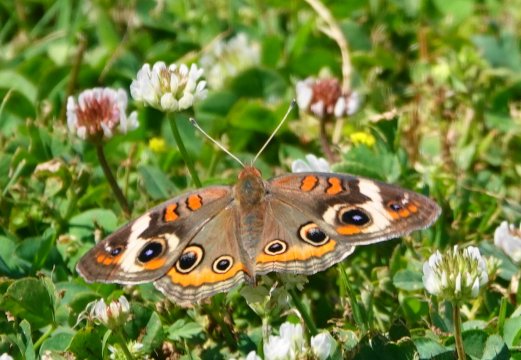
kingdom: Animalia
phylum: Arthropoda
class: Insecta
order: Lepidoptera
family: Nymphalidae
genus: Junonia
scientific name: Junonia coenia
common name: Common Buckeye
